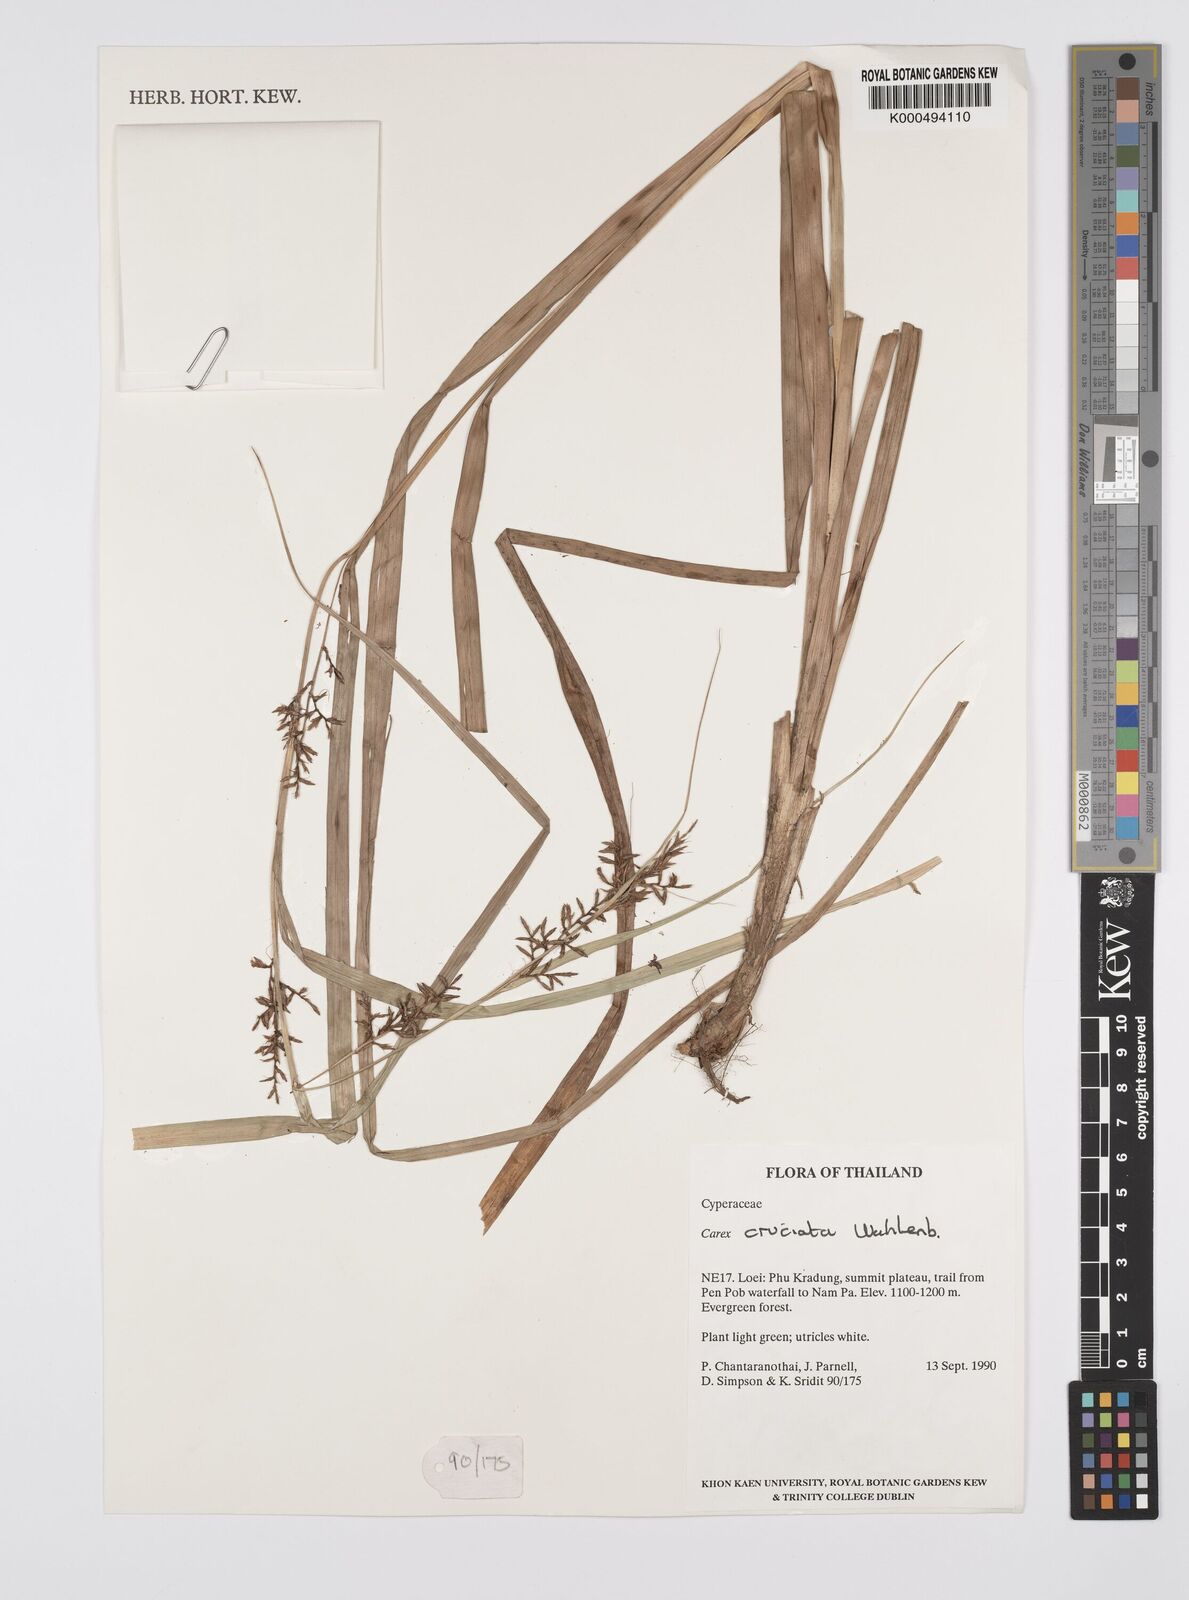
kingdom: Plantae
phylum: Tracheophyta
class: Liliopsida
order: Poales
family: Cyperaceae
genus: Carex
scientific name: Carex cruciata
